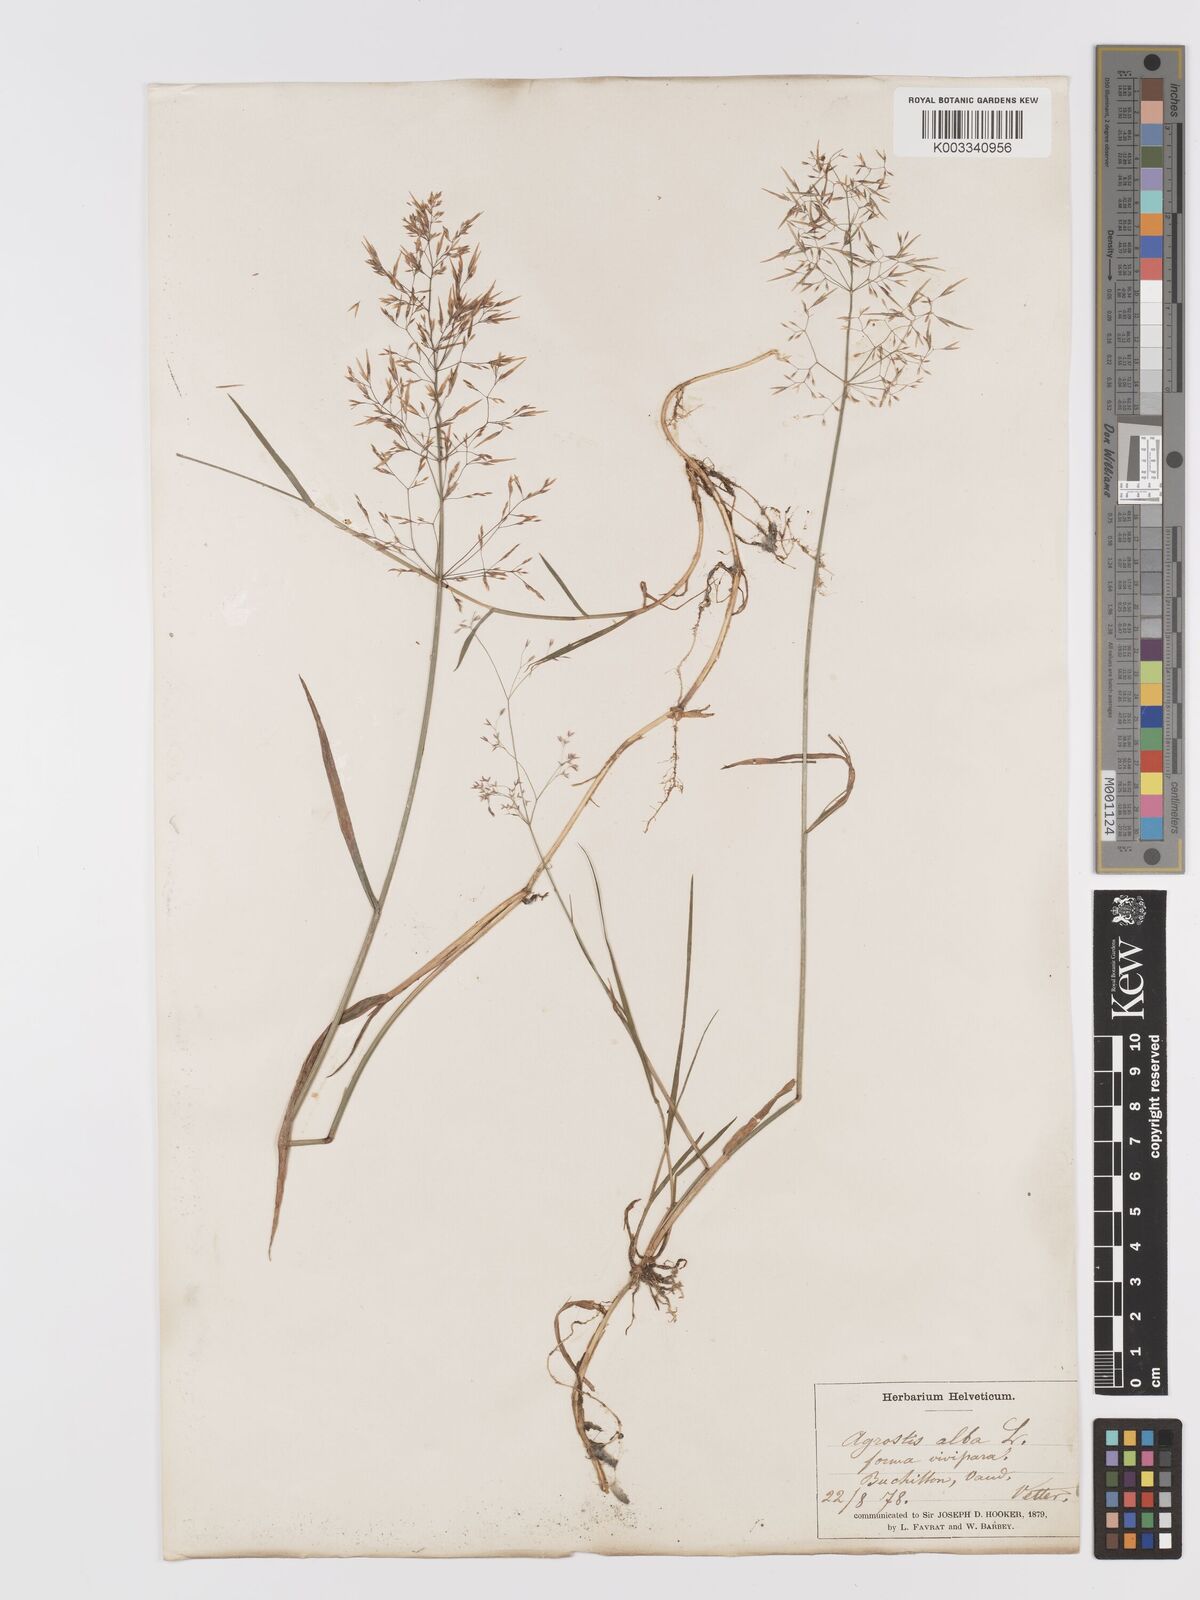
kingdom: Plantae
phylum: Tracheophyta
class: Liliopsida
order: Poales
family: Poaceae
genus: Agrostis
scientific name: Agrostis capillaris
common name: Colonial bentgrass
